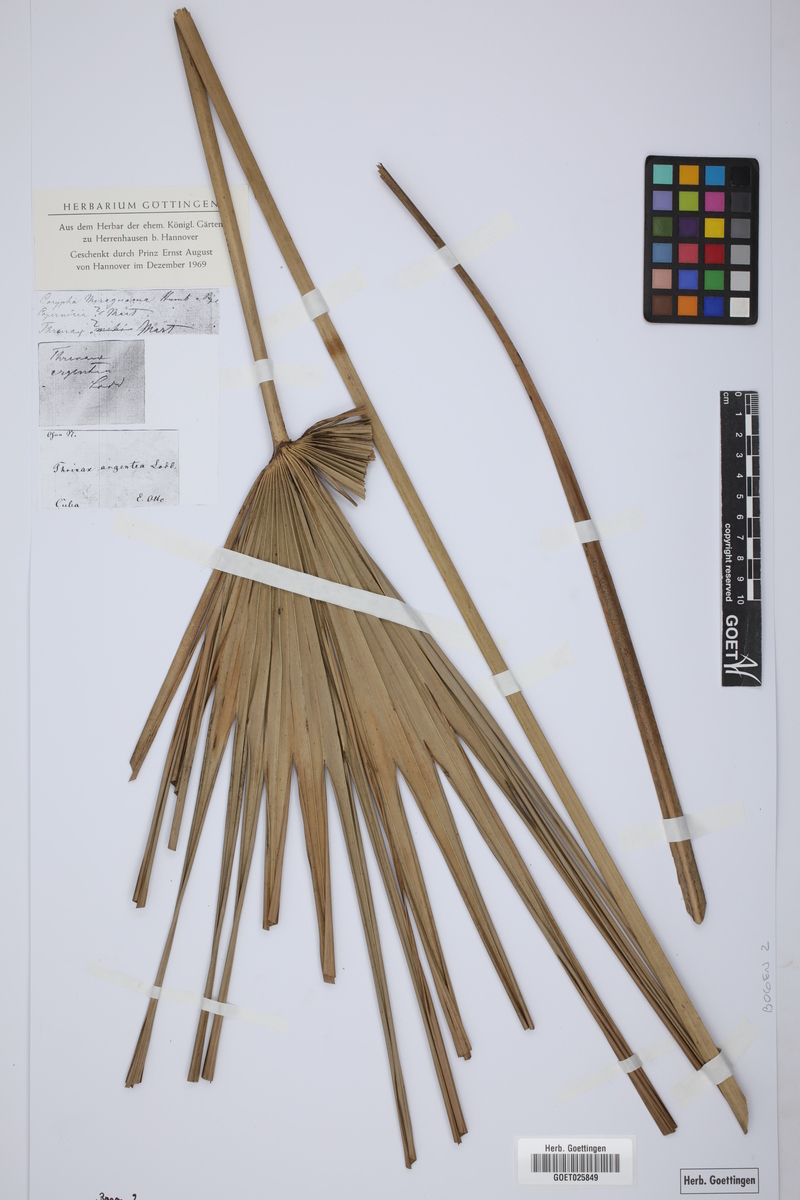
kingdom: Plantae
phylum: Tracheophyta
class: Liliopsida
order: Arecales
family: Arecaceae
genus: Coccothrinax
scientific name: Coccothrinax argentea
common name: Broom palm
